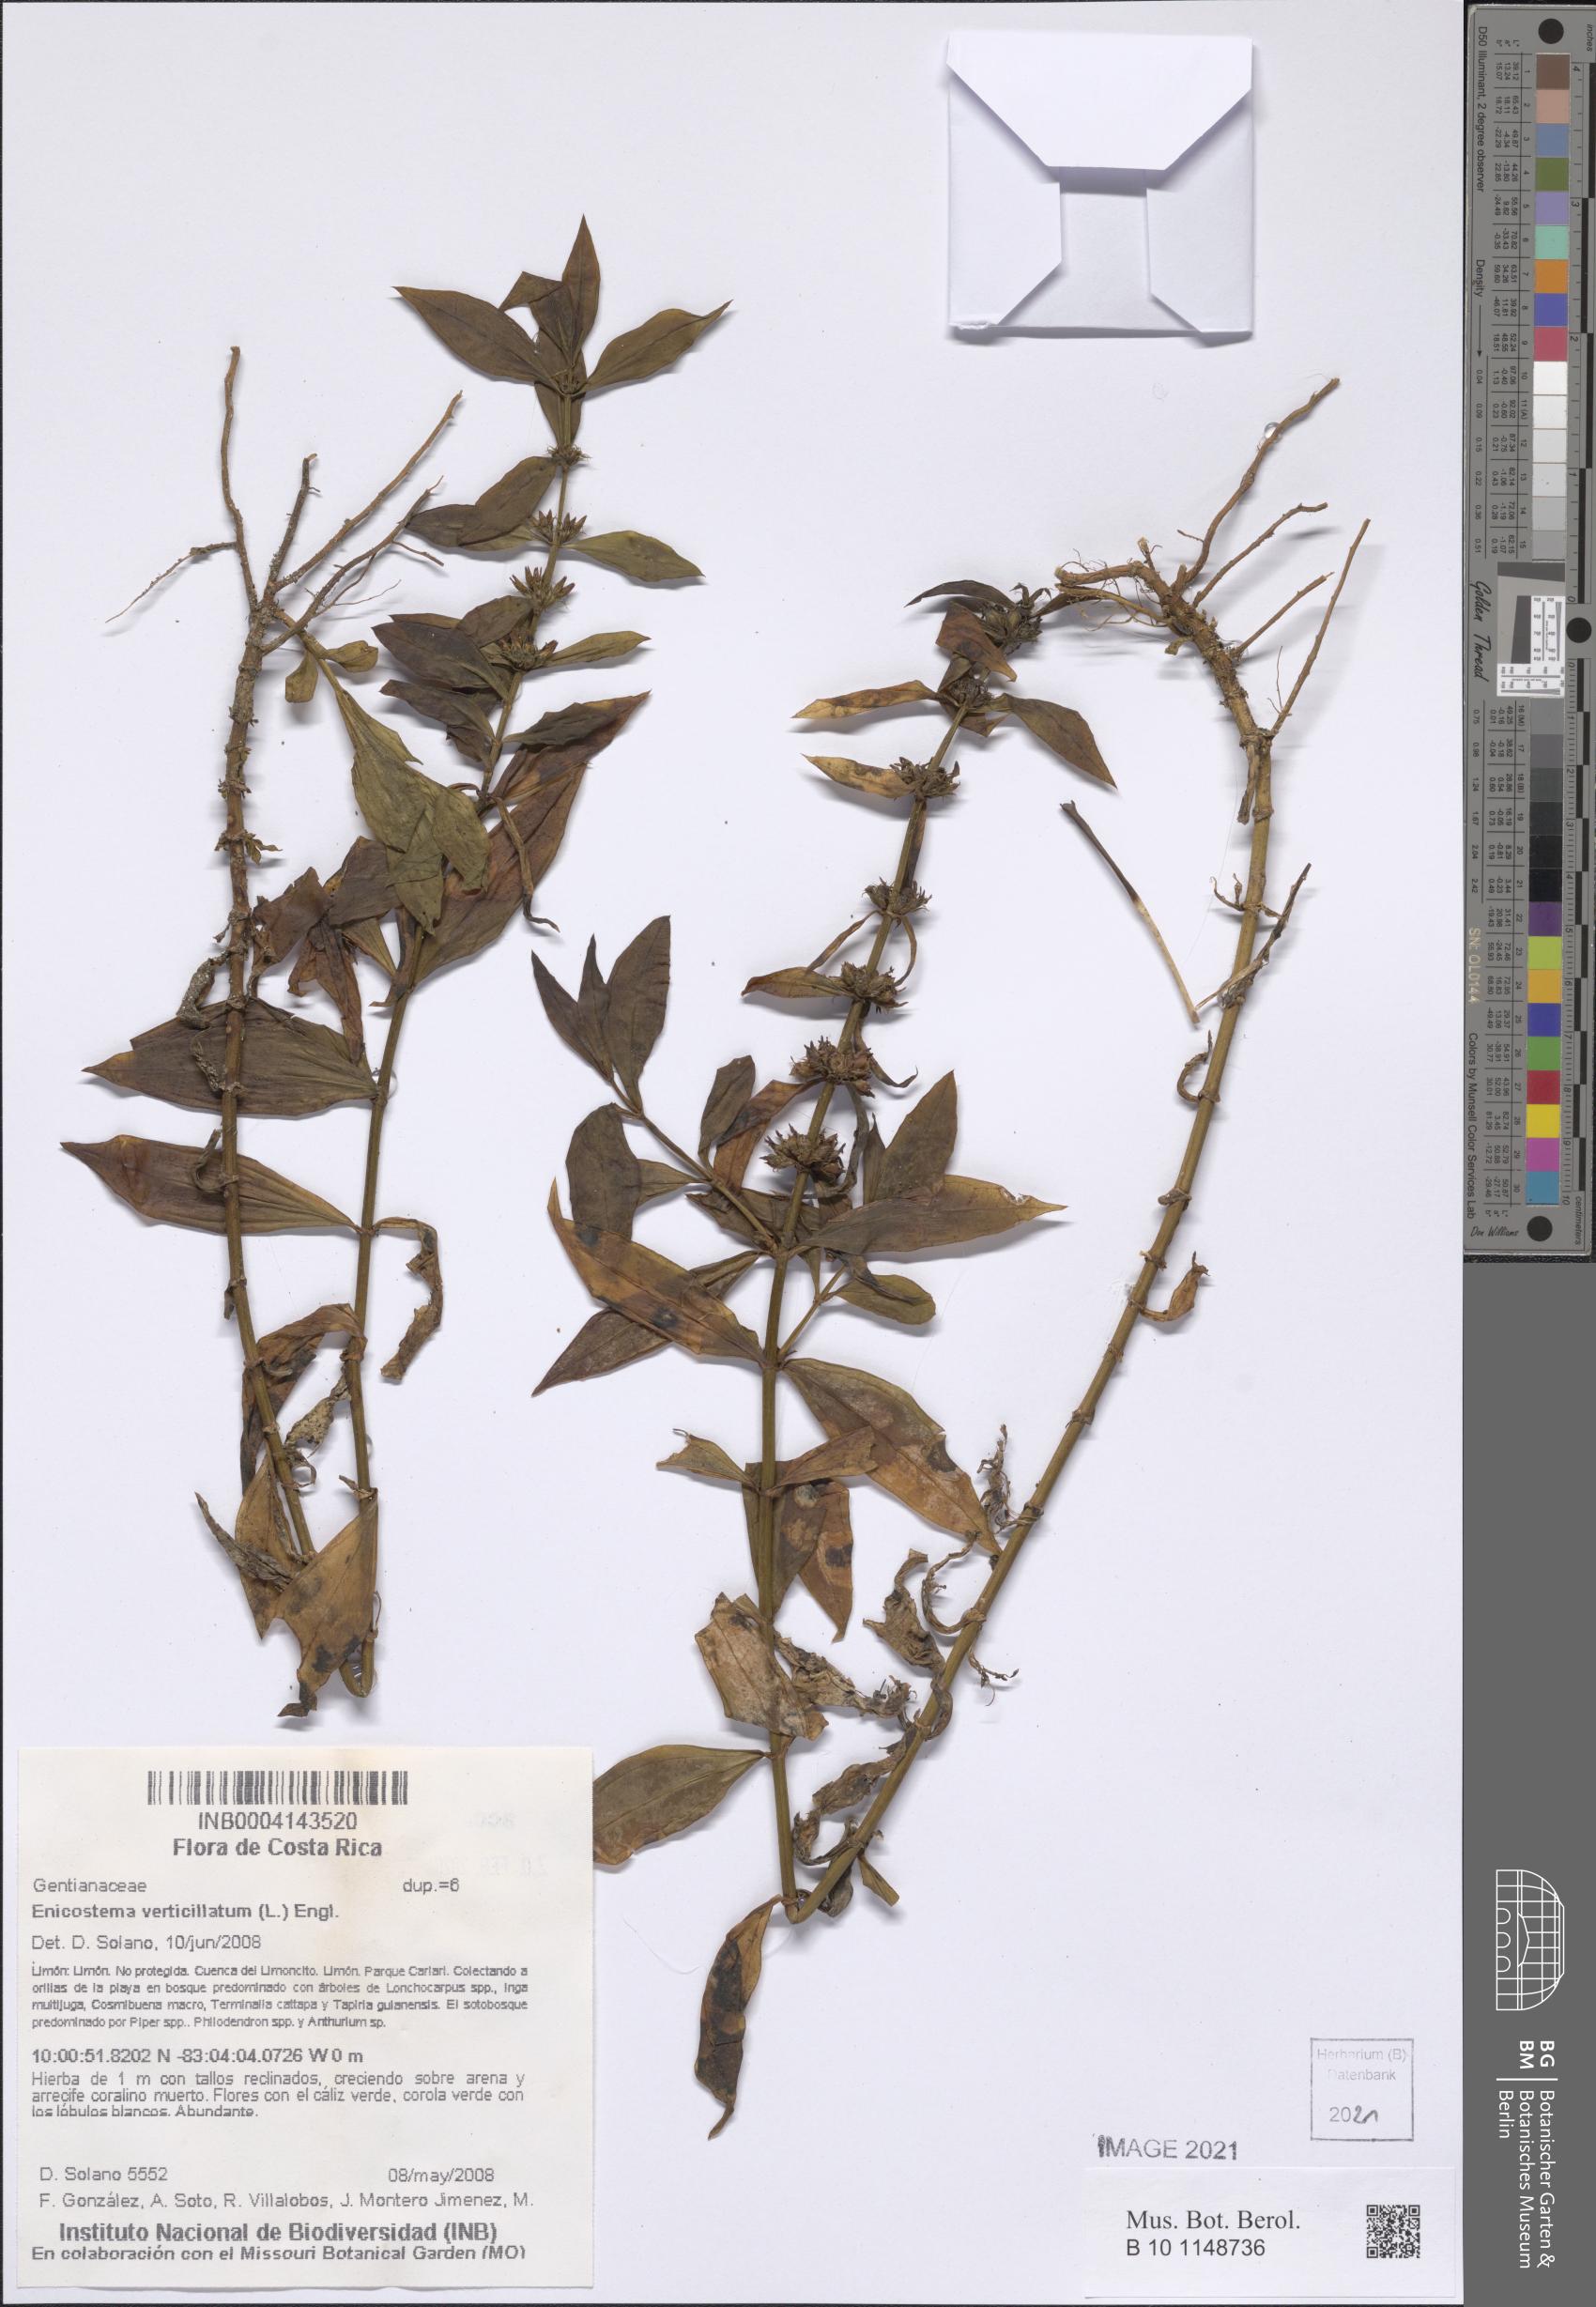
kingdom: Plantae
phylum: Tracheophyta
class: Magnoliopsida
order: Gentianales
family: Gentianaceae
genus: Enicostema
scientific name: Enicostema verticillatum
